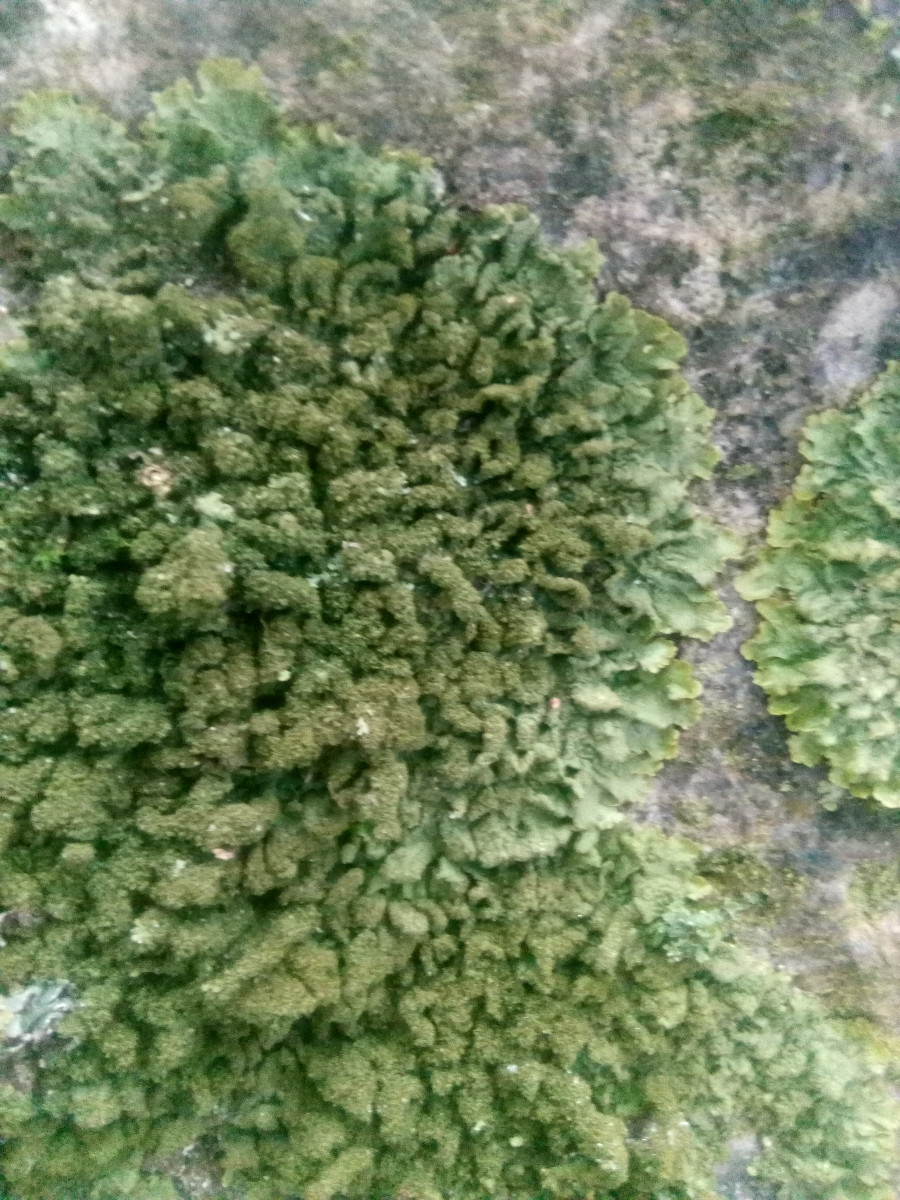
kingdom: Fungi
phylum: Ascomycota
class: Lecanoromycetes
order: Lecanorales
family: Parmeliaceae
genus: Melanelixia
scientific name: Melanelixia glabratula
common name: glinsende skållav
